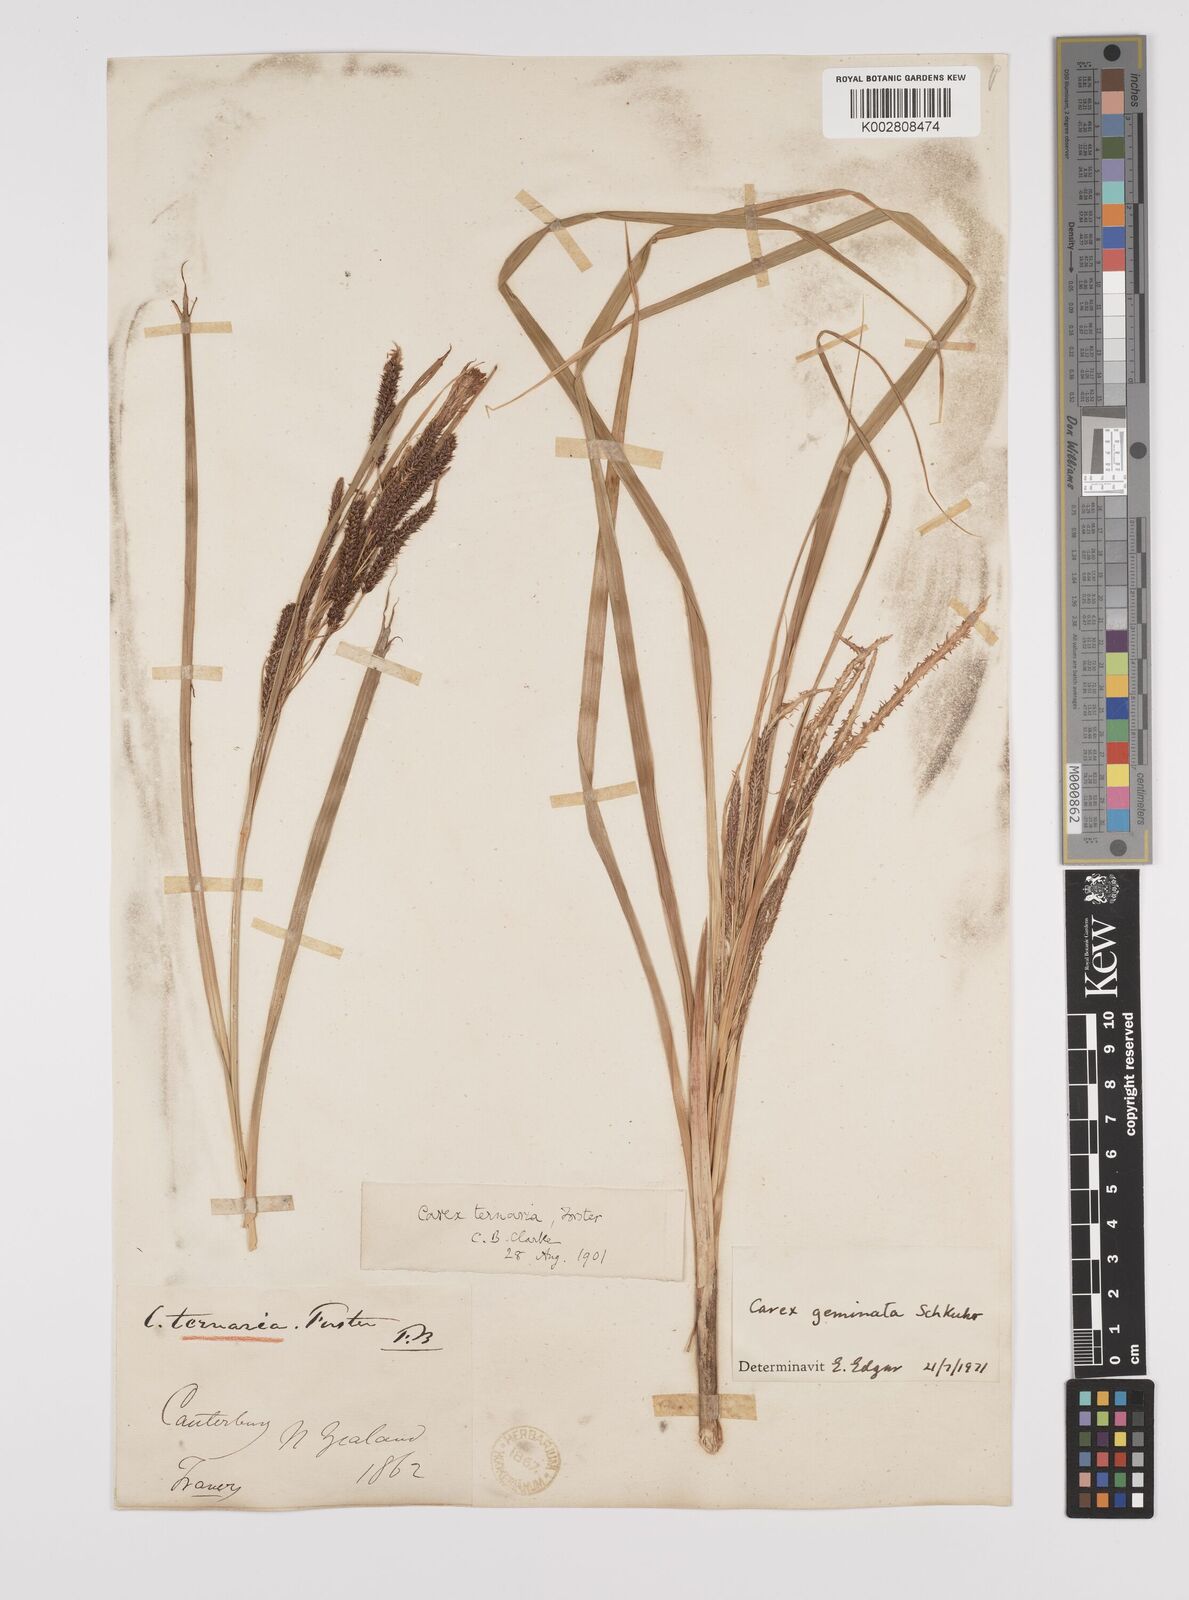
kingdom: Plantae
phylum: Tracheophyta
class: Liliopsida
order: Poales
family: Cyperaceae
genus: Carex
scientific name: Carex geminata
